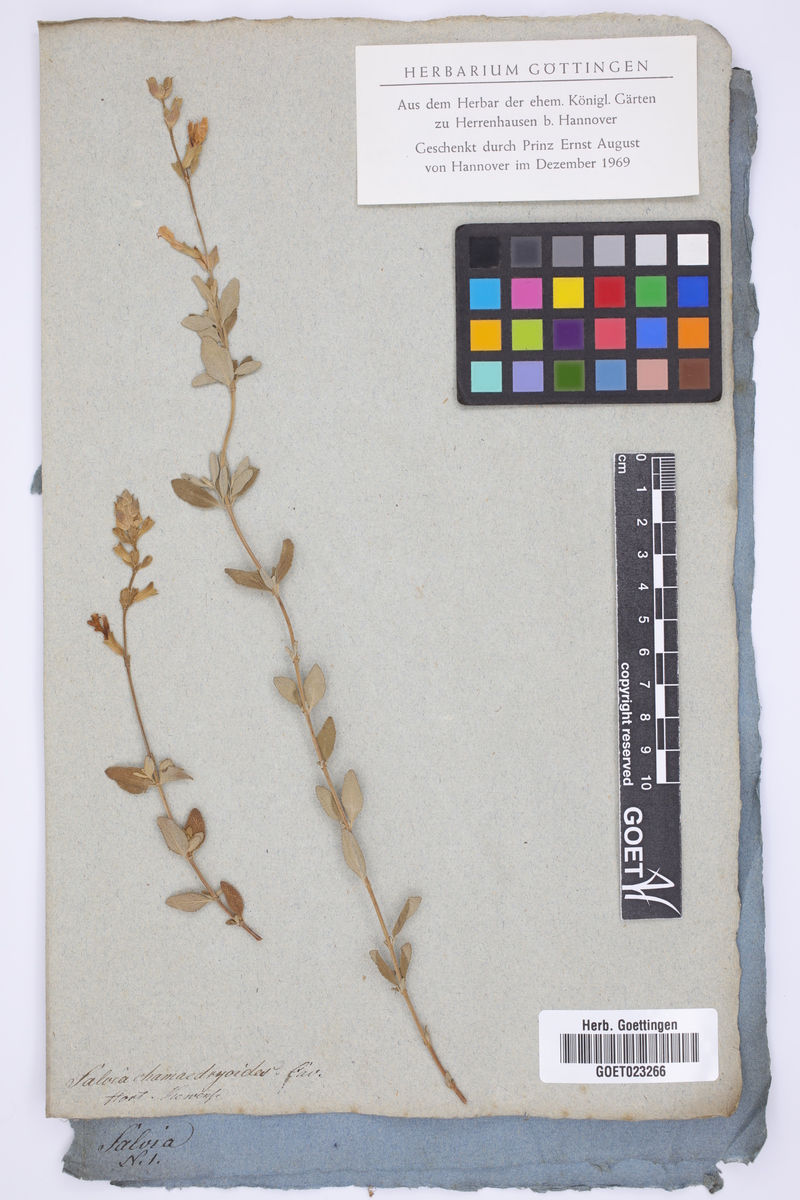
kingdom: Plantae
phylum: Tracheophyta
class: Magnoliopsida
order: Lamiales
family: Lamiaceae
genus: Salvia
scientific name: Salvia chamaedryoides
